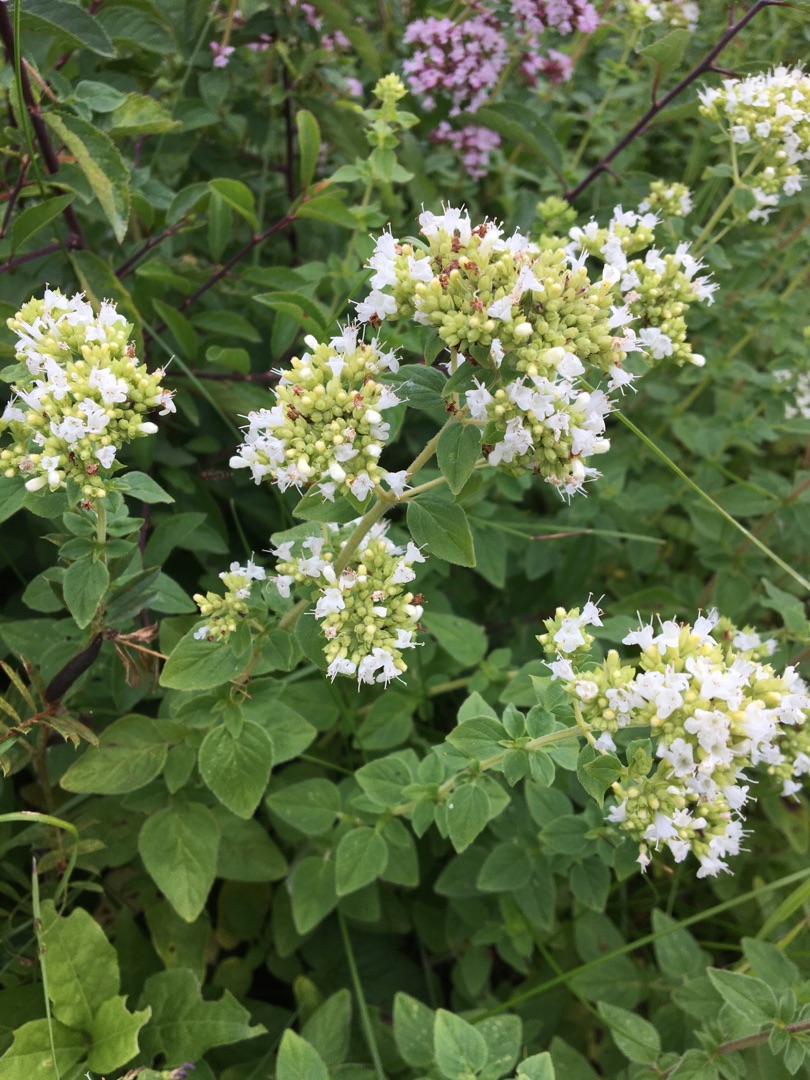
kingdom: Plantae
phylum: Tracheophyta
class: Magnoliopsida
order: Lamiales
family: Lamiaceae
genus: Origanum
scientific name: Origanum vulgare
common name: Merian
